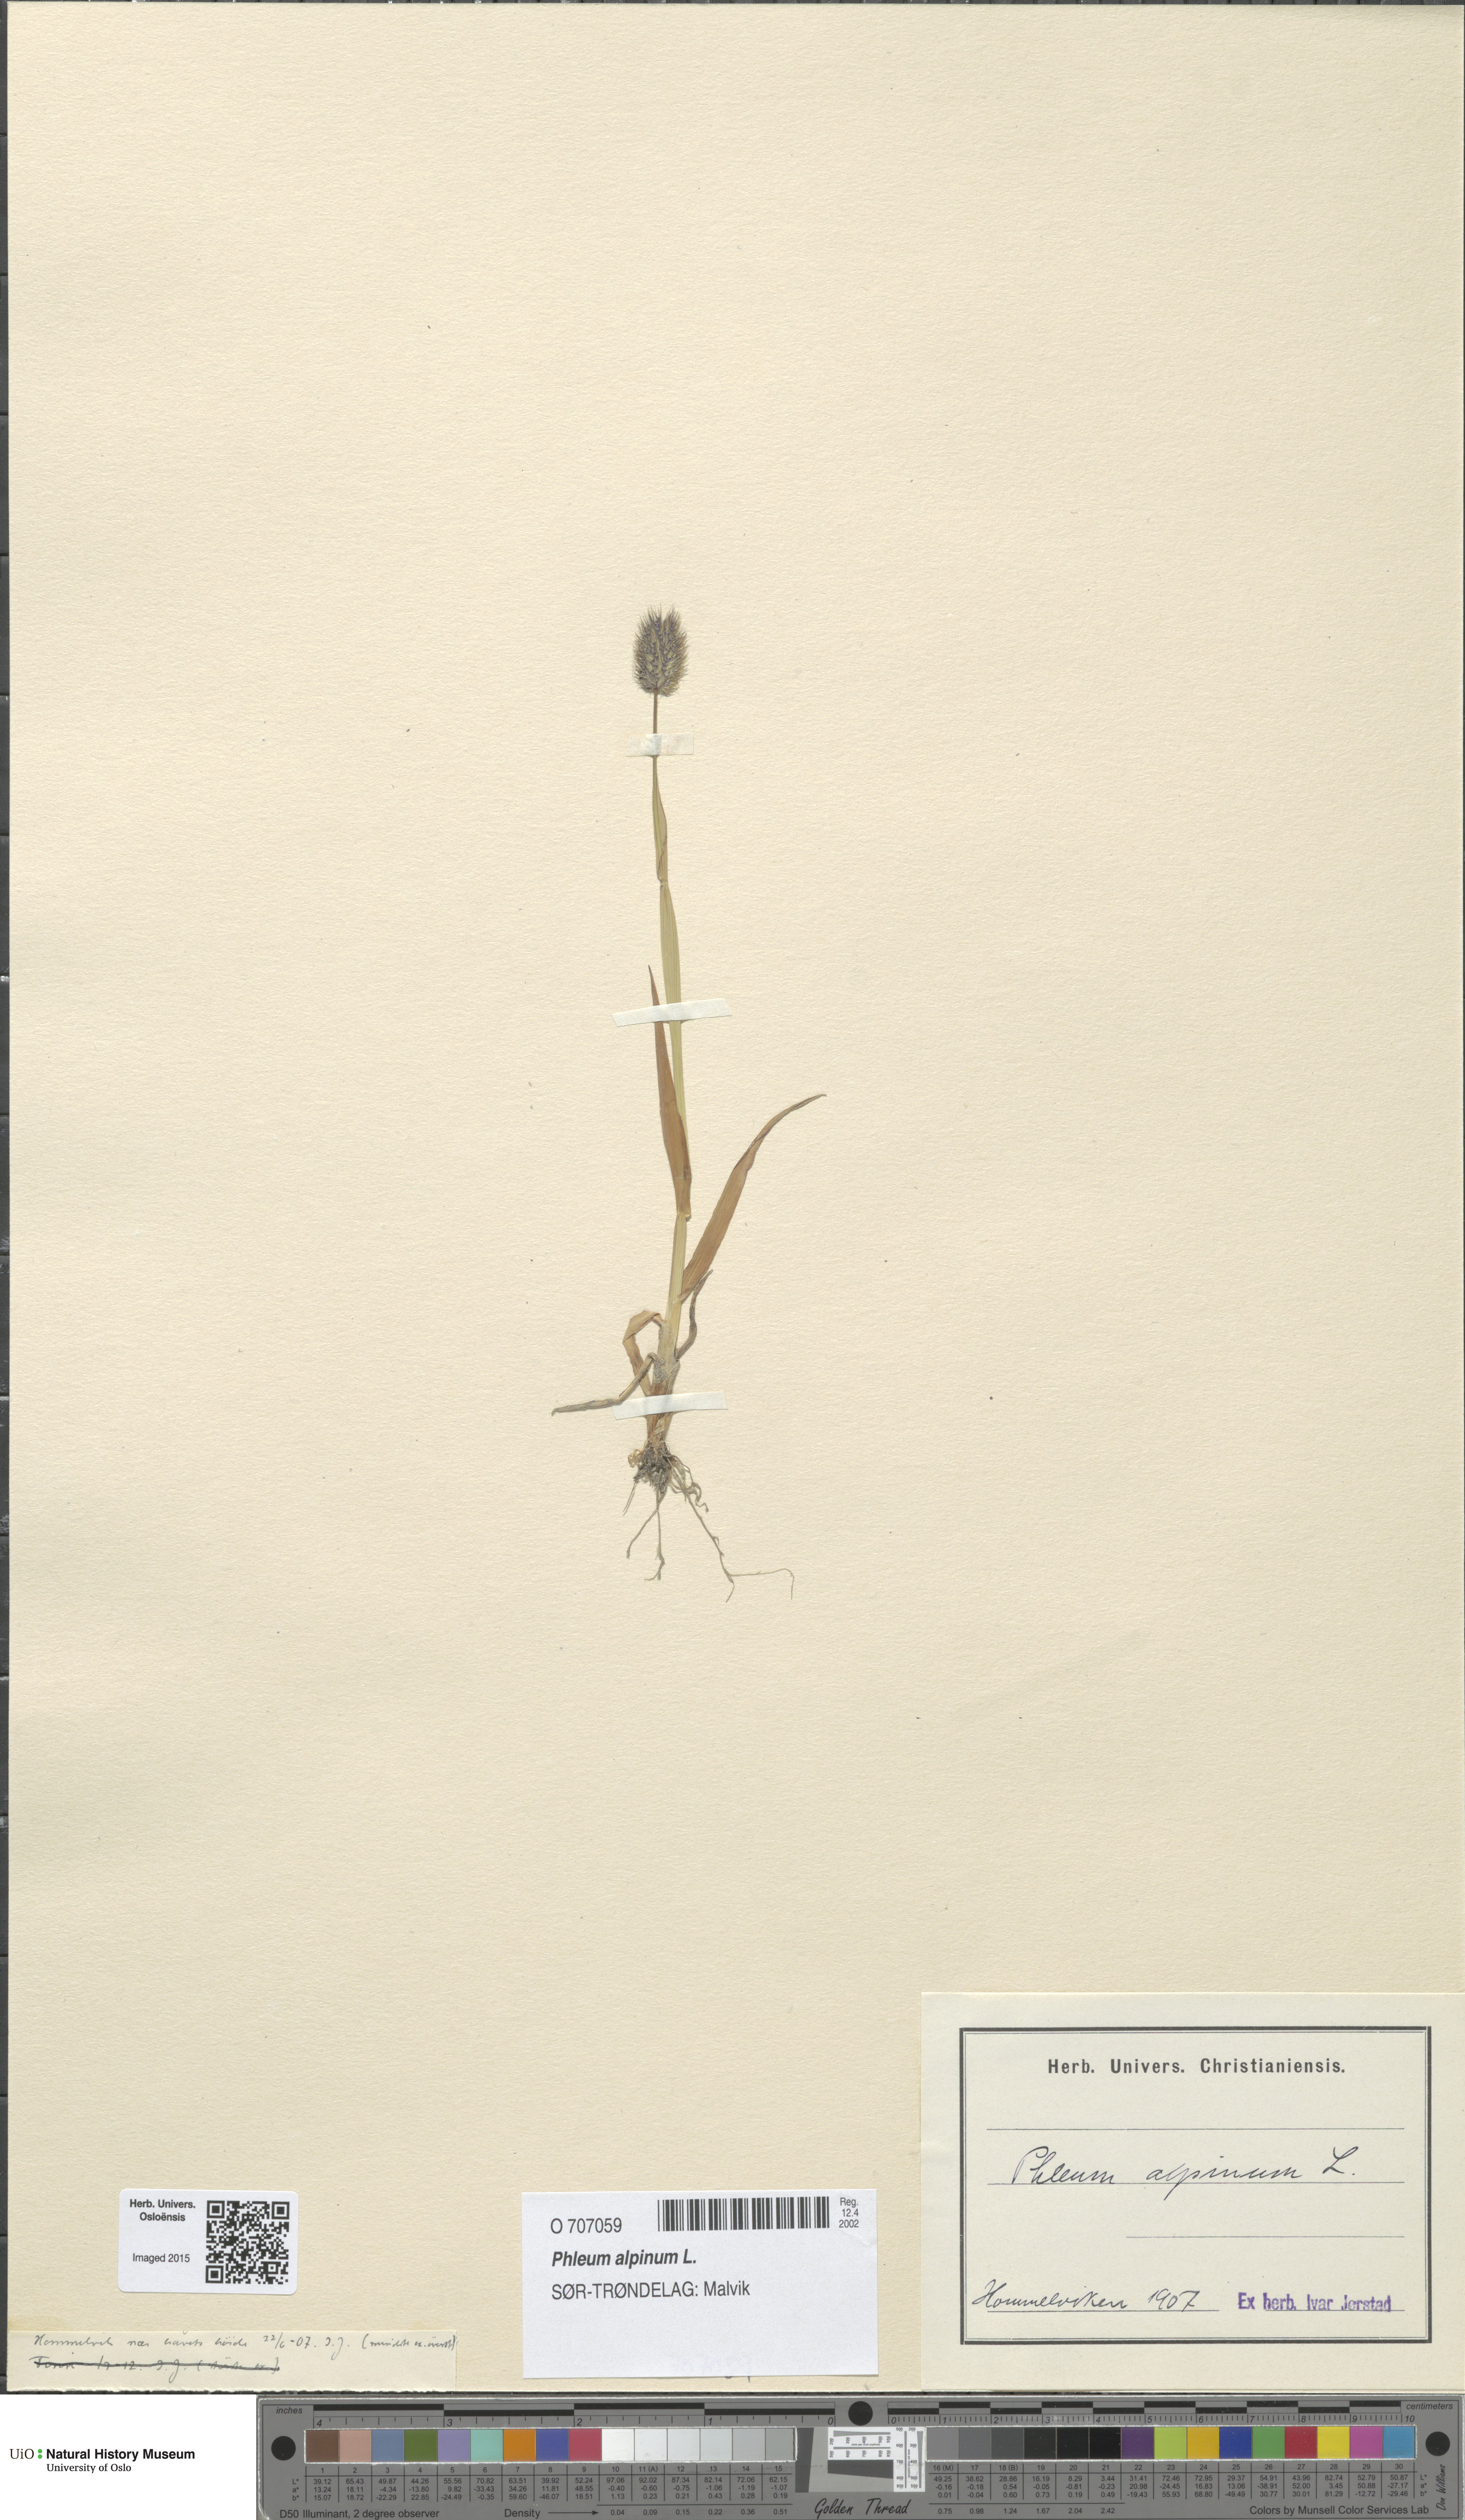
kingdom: Plantae
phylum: Tracheophyta
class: Liliopsida
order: Poales
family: Poaceae
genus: Phleum
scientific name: Phleum alpinum
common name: Alpine cat's-tail
